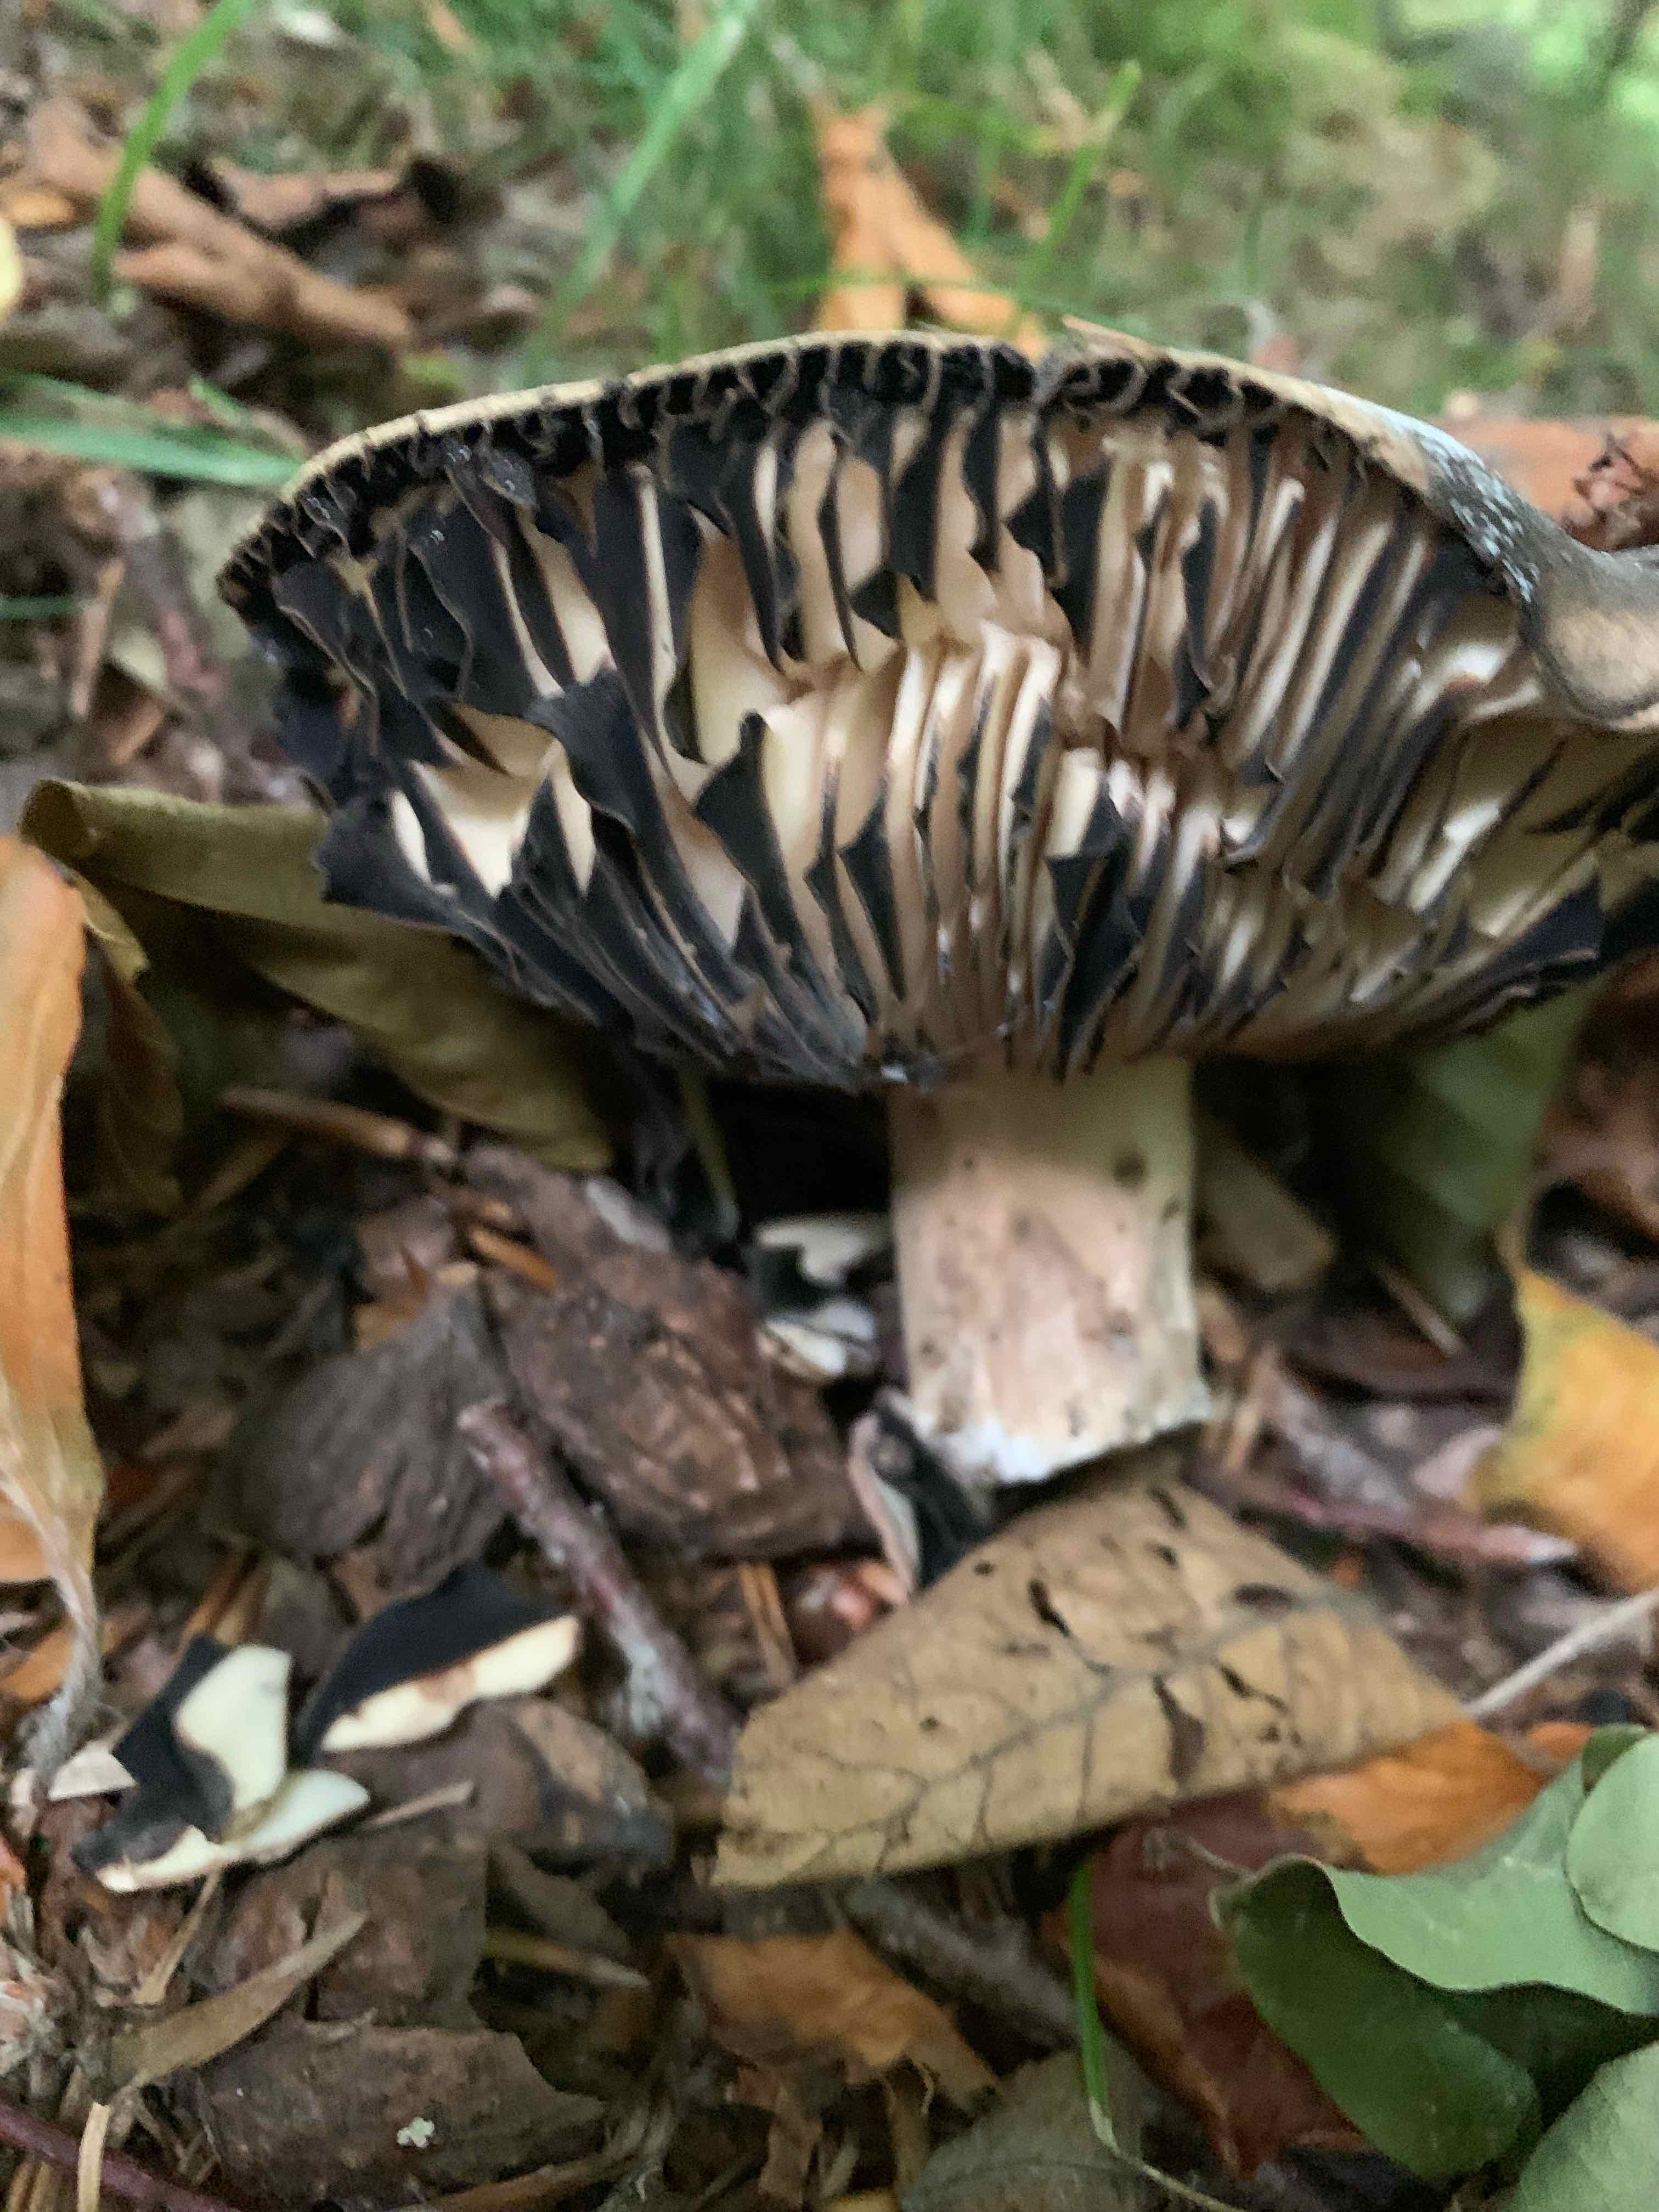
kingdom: Fungi
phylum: Basidiomycota
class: Agaricomycetes
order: Russulales
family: Russulaceae
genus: Russula
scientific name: Russula adusta
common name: sværtende skørhat
